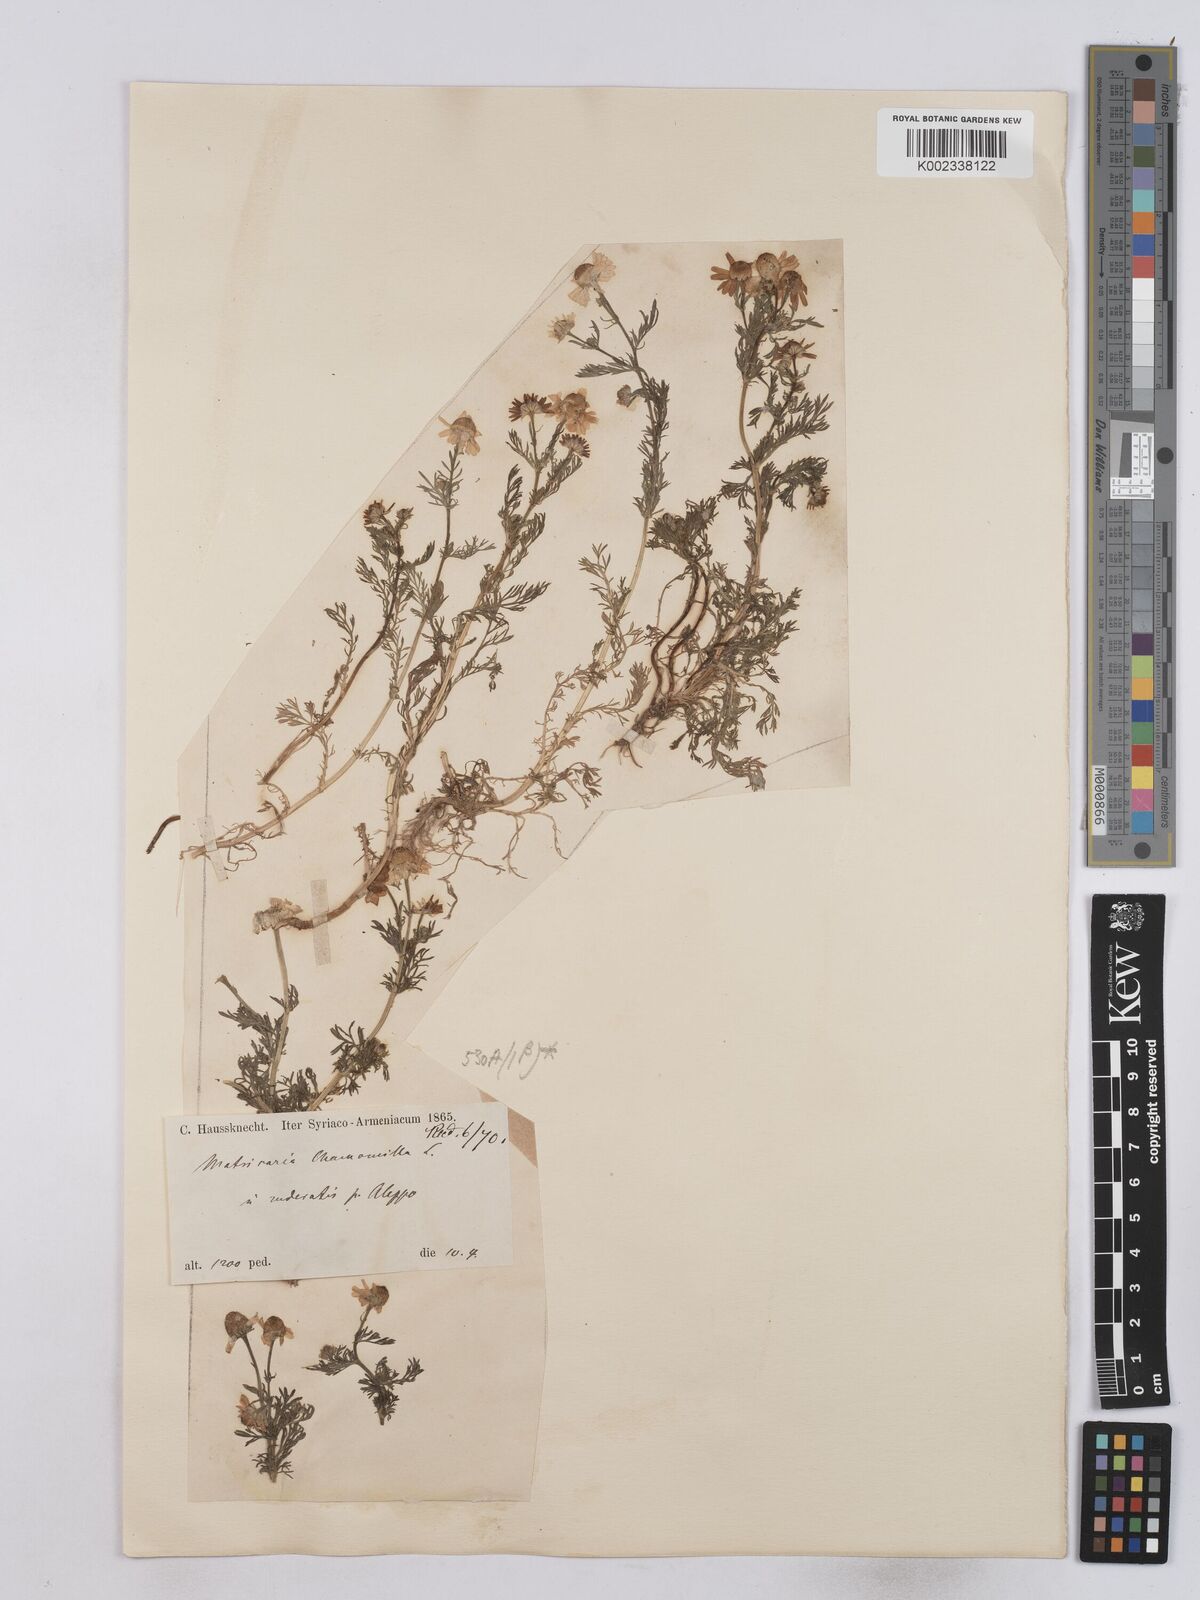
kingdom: Plantae
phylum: Tracheophyta
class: Magnoliopsida
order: Asterales
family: Asteraceae
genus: Matricaria
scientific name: Matricaria chamomilla
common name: Scented mayweed
